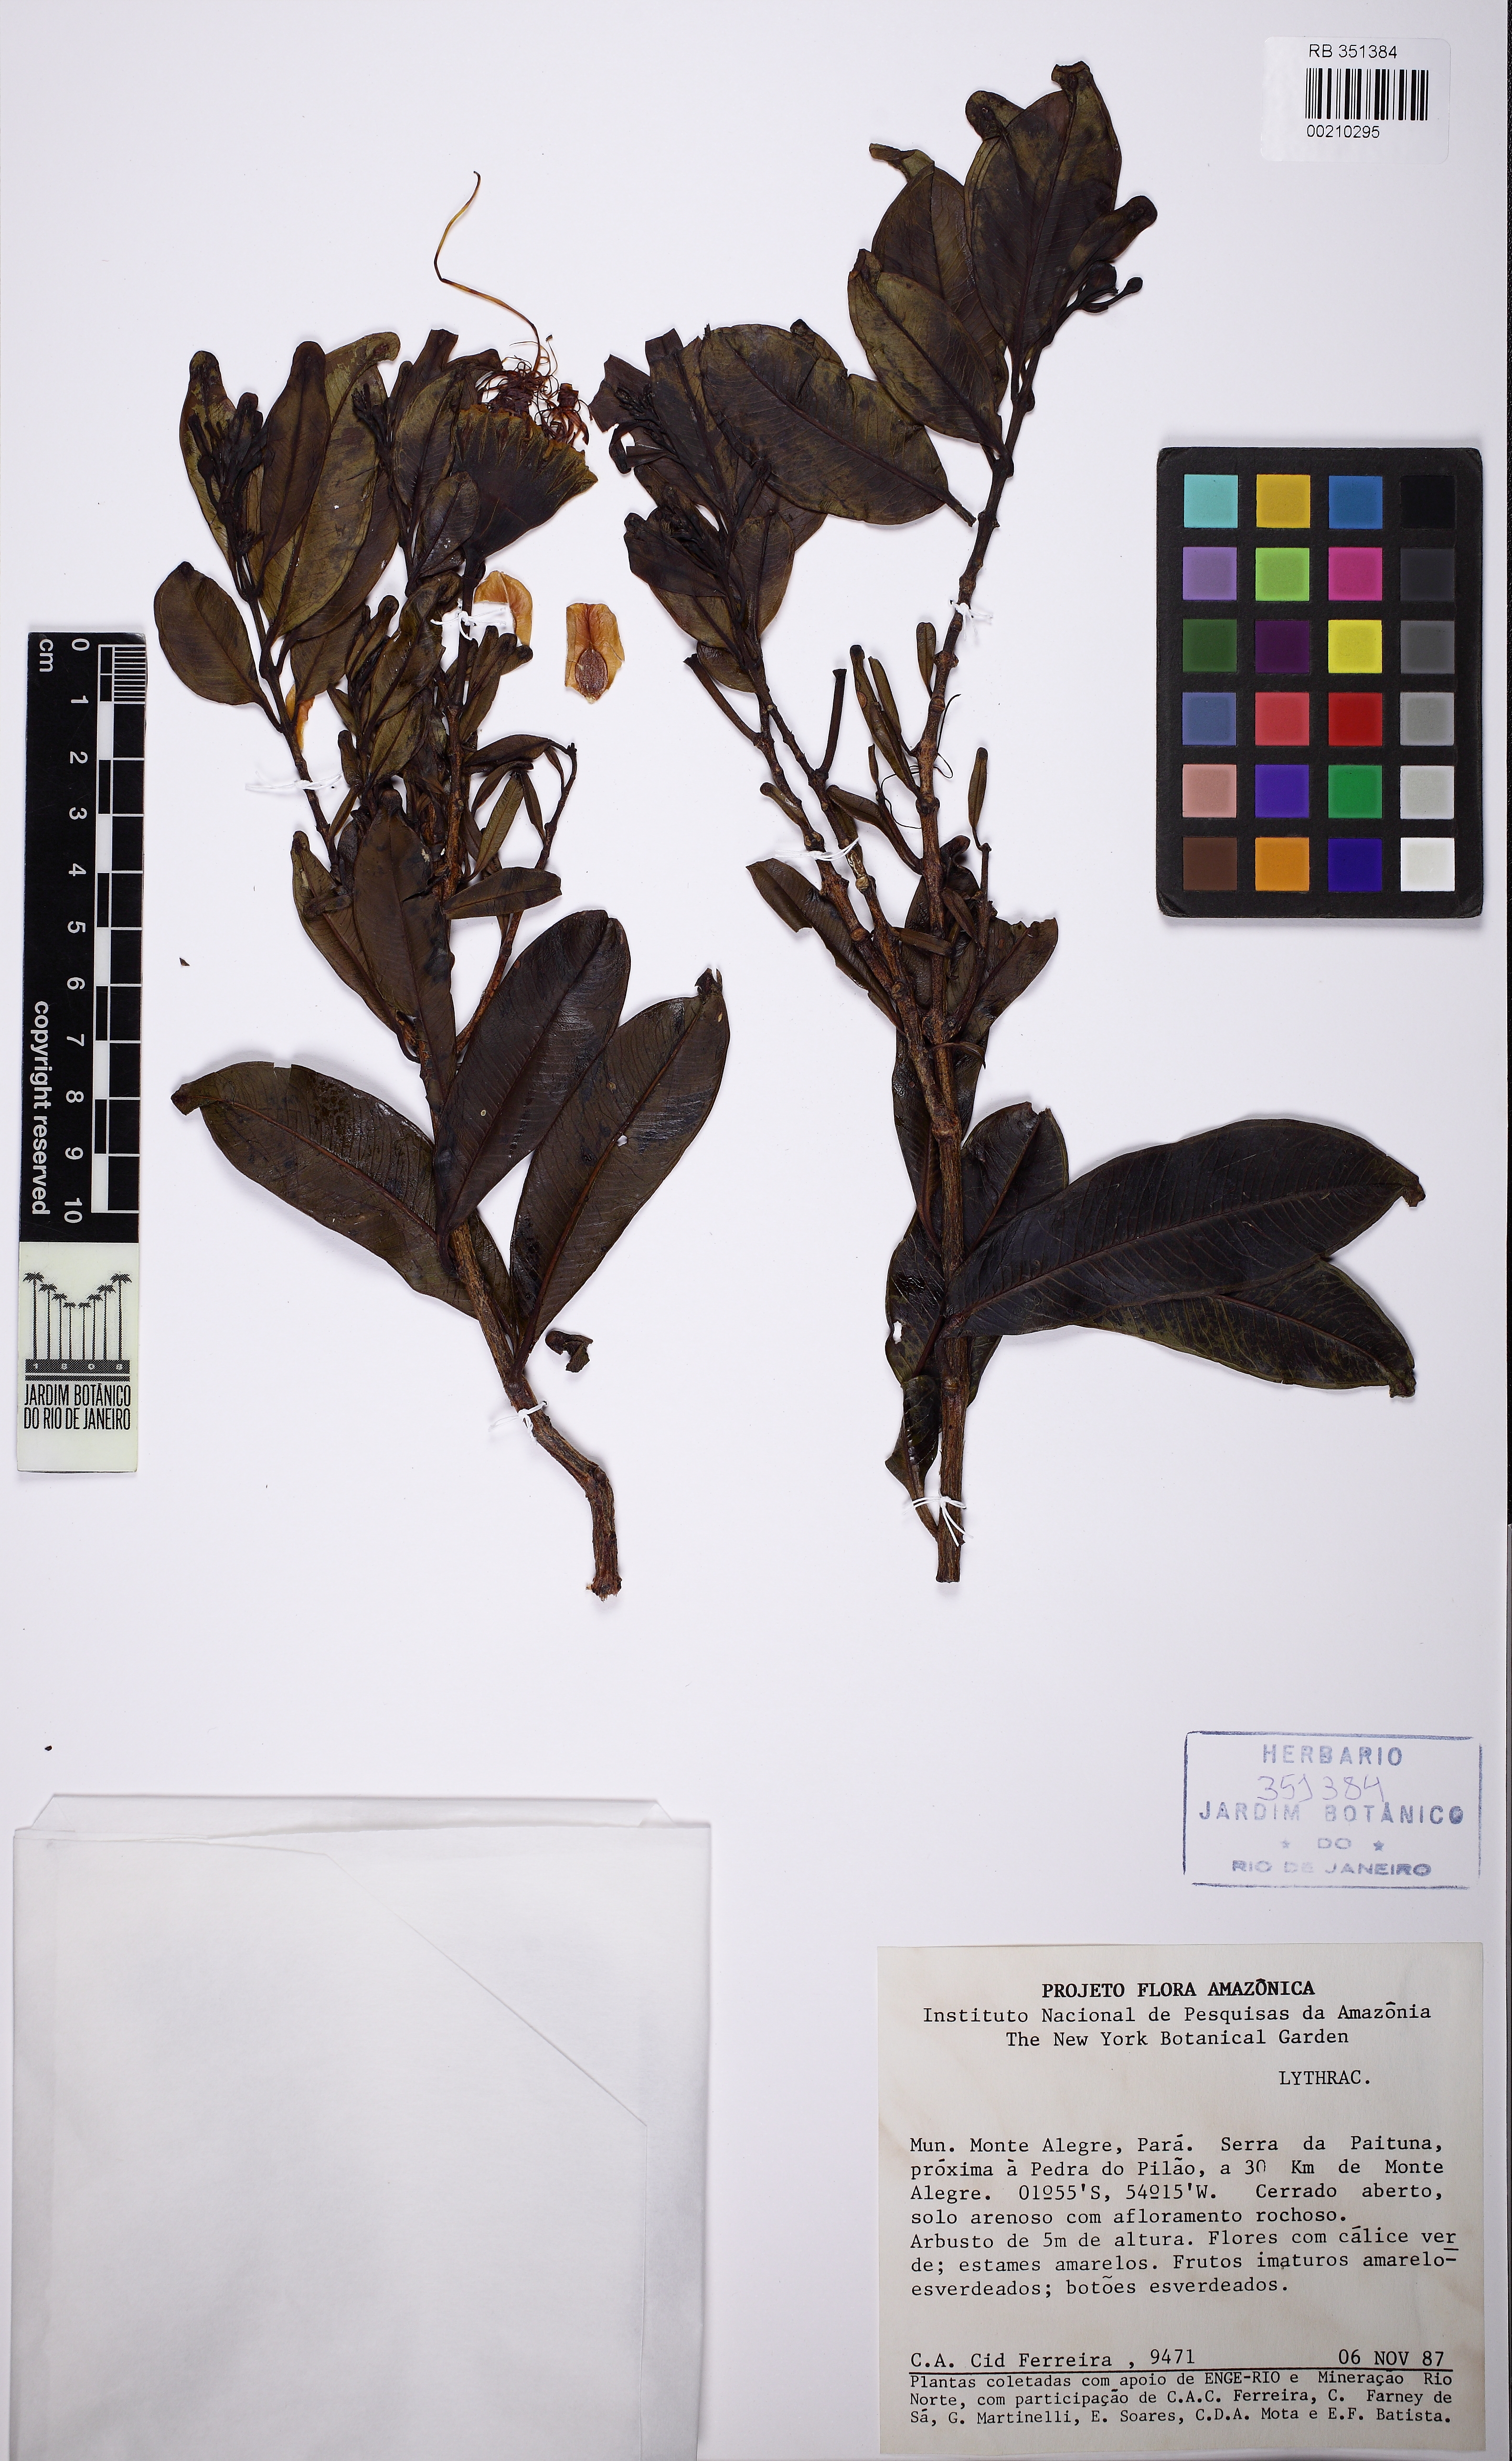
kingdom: Plantae
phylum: Tracheophyta
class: Magnoliopsida
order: Myrtales
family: Lythraceae
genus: Lafoensia
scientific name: Lafoensia
